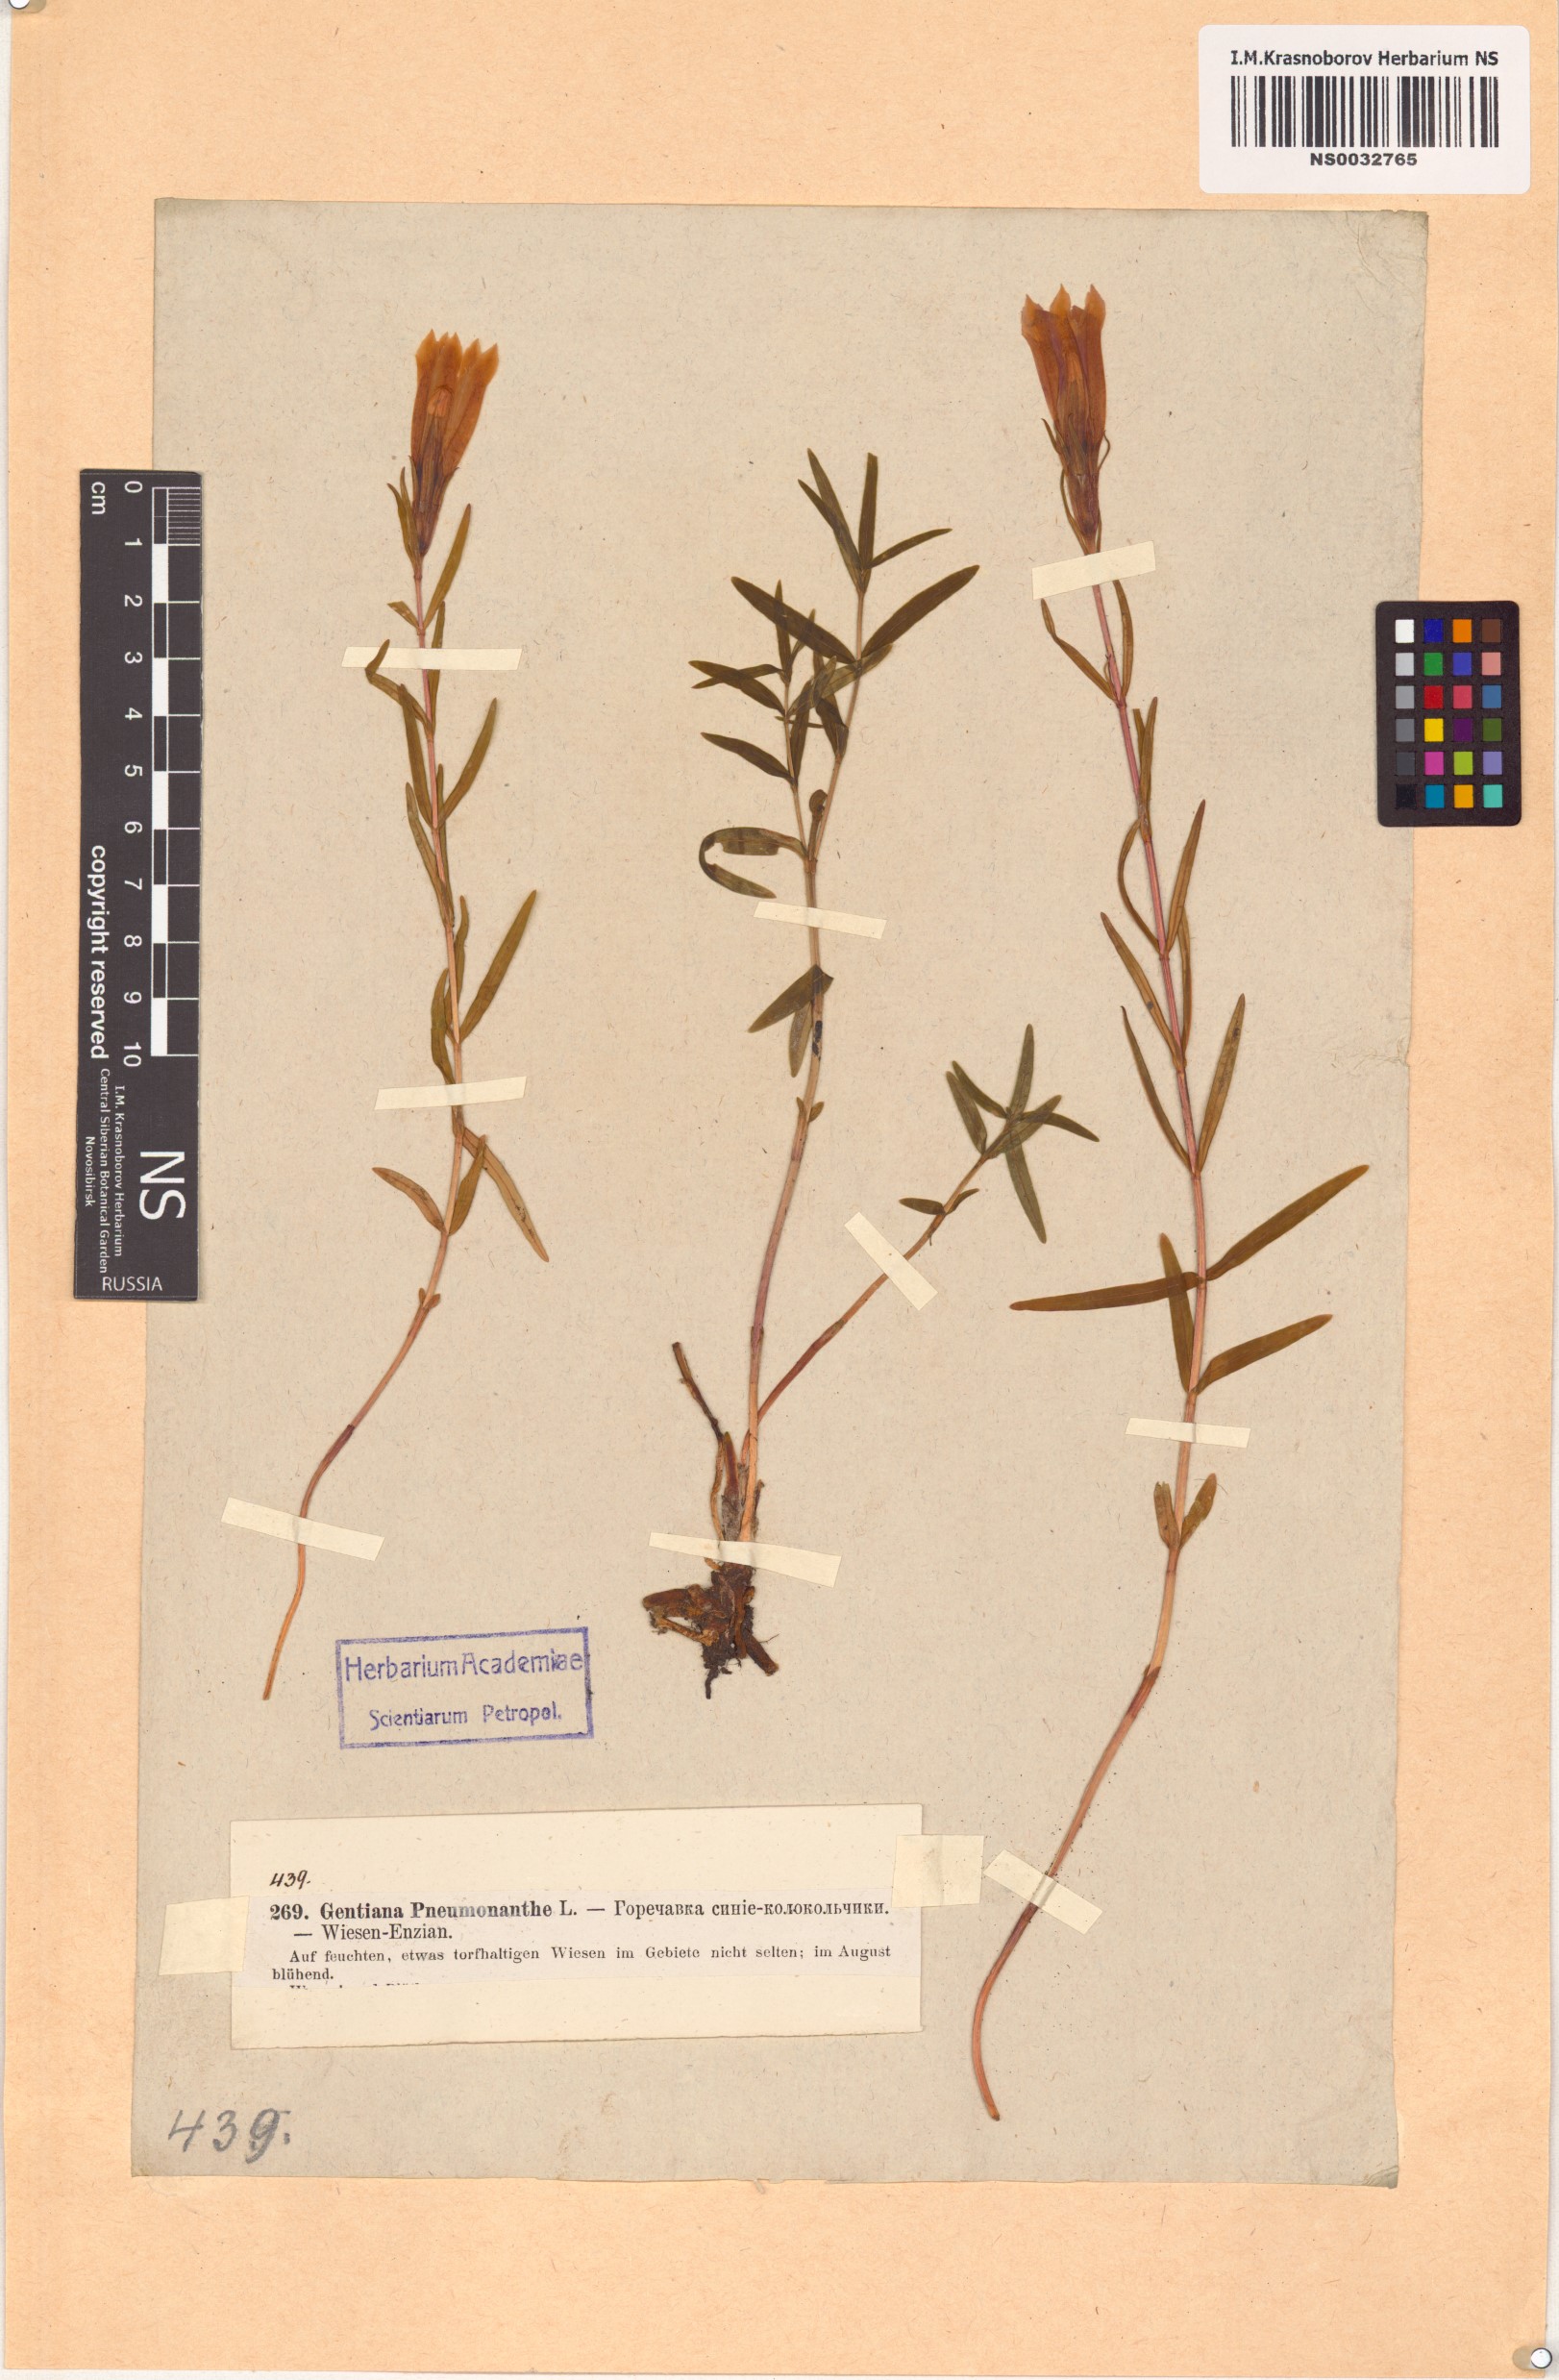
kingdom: Plantae
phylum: Tracheophyta
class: Magnoliopsida
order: Gentianales
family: Gentianaceae
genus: Gentiana
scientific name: Gentiana pneumonanthe
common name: Marsh gentian
